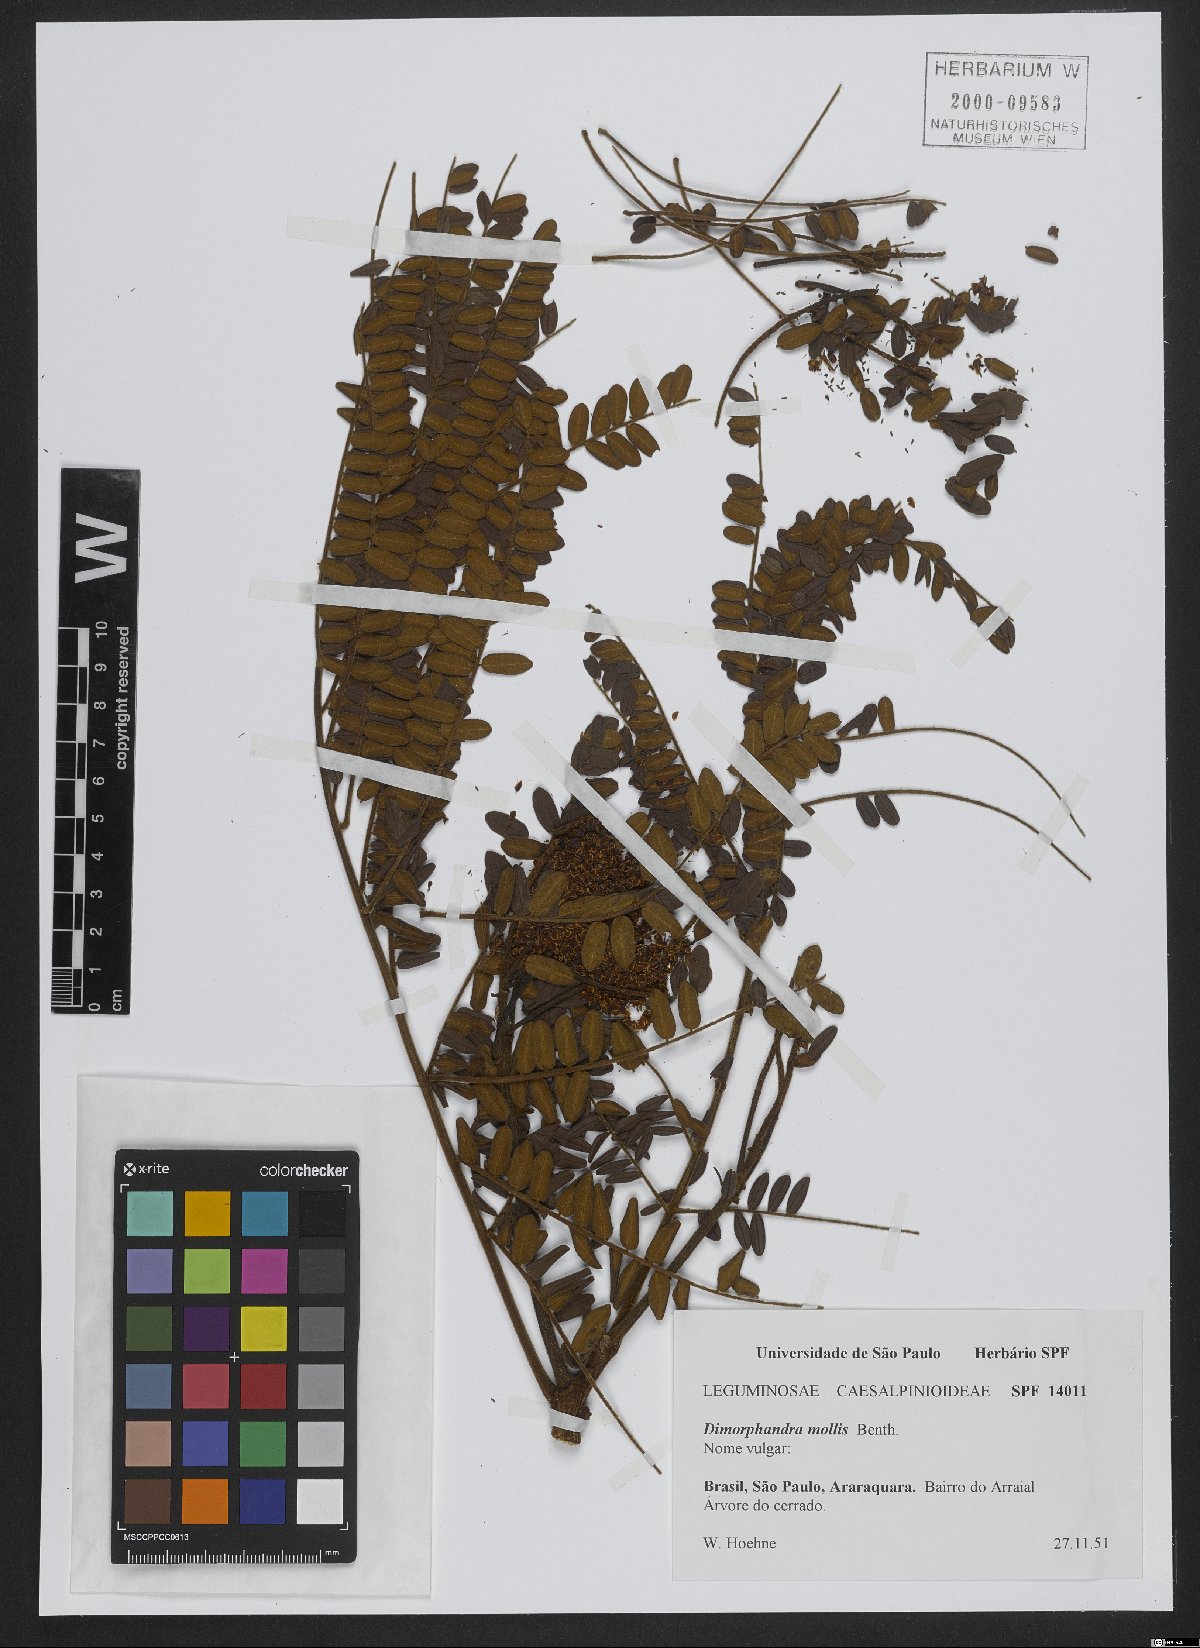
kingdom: Plantae
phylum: Tracheophyta
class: Magnoliopsida
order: Fabales
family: Fabaceae
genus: Dimorphandra
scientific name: Dimorphandra mollis
